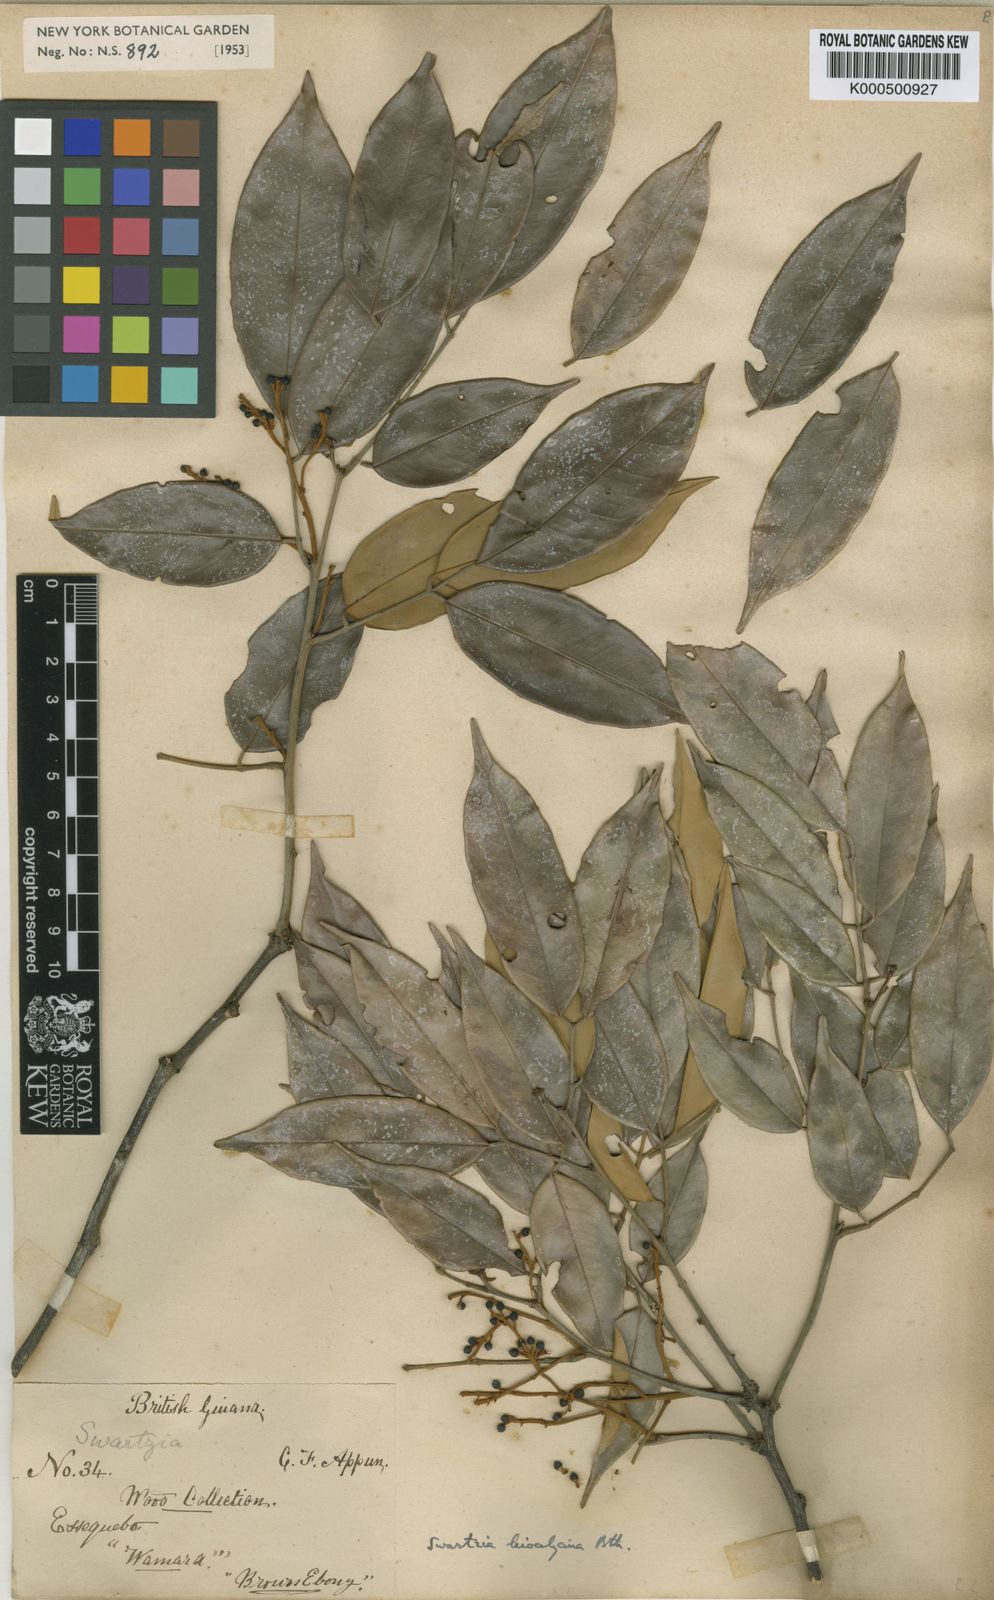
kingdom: Plantae
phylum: Tracheophyta
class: Magnoliopsida
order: Fabales
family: Fabaceae
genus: Swartzia
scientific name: Swartzia leiocalycina
